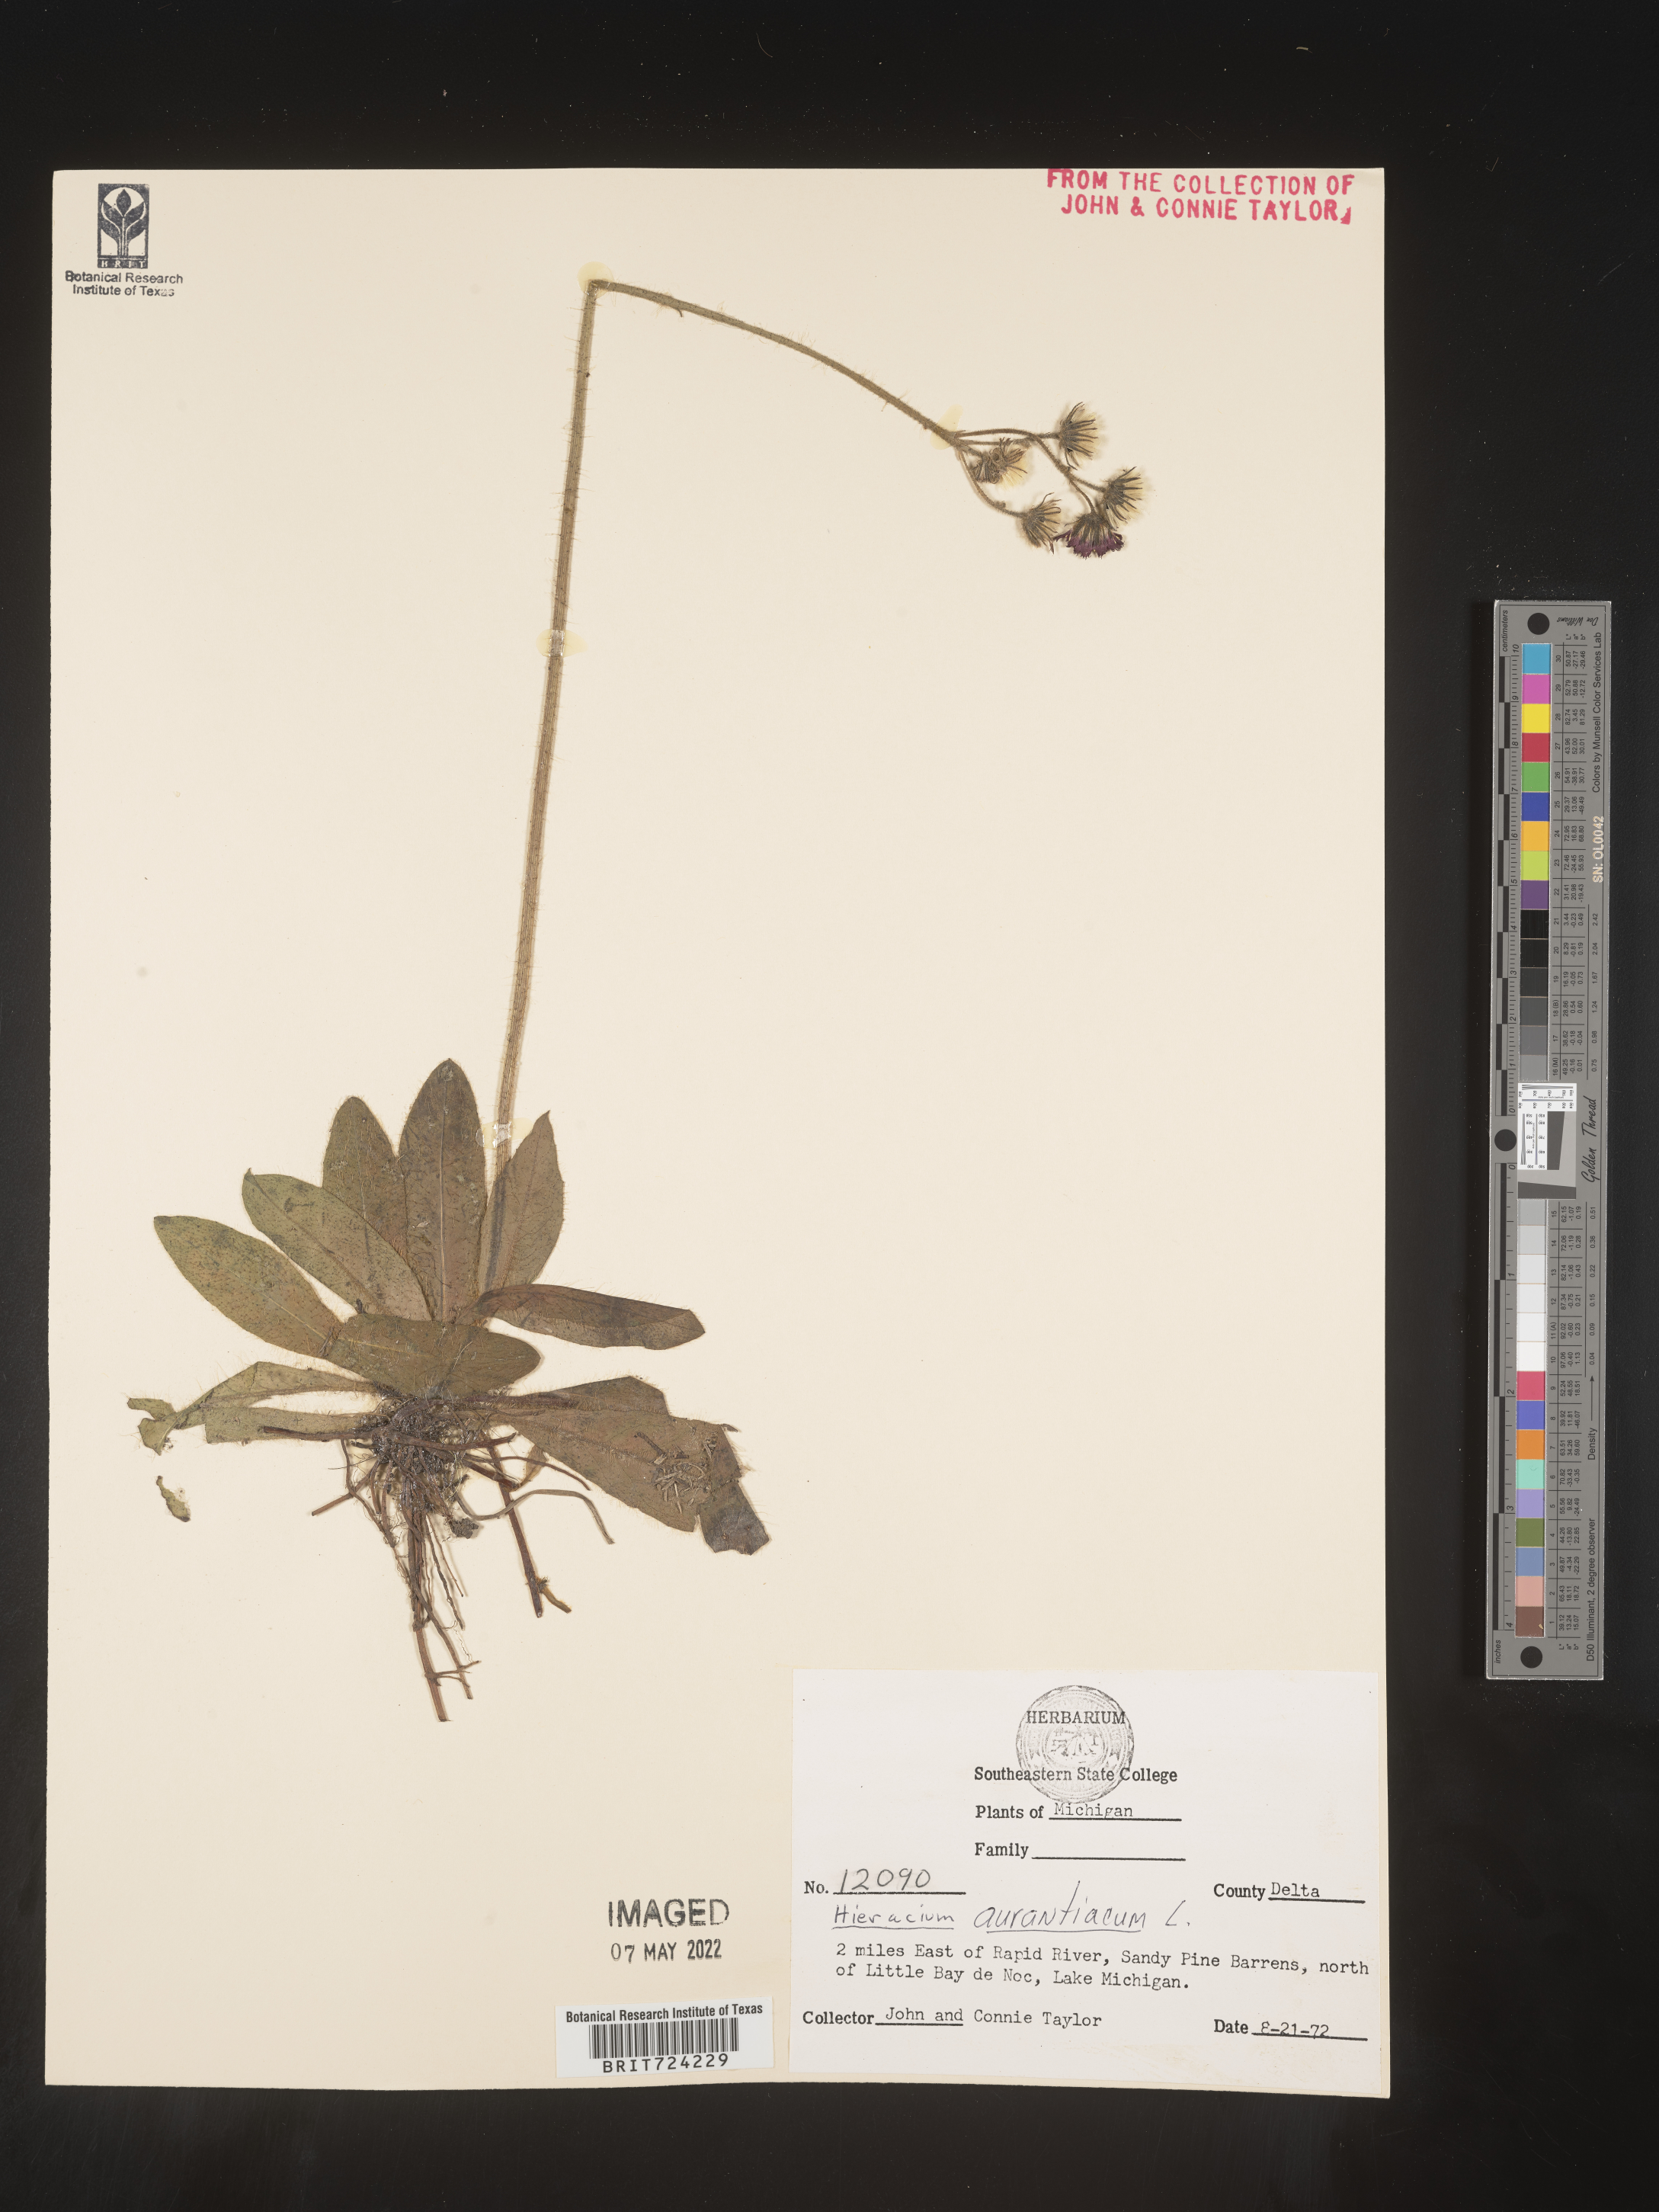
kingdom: Plantae
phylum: Tracheophyta
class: Magnoliopsida
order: Asterales
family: Asteraceae
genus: Pilosella
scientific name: Pilosella aurantiaca
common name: Fox-and-cubs
